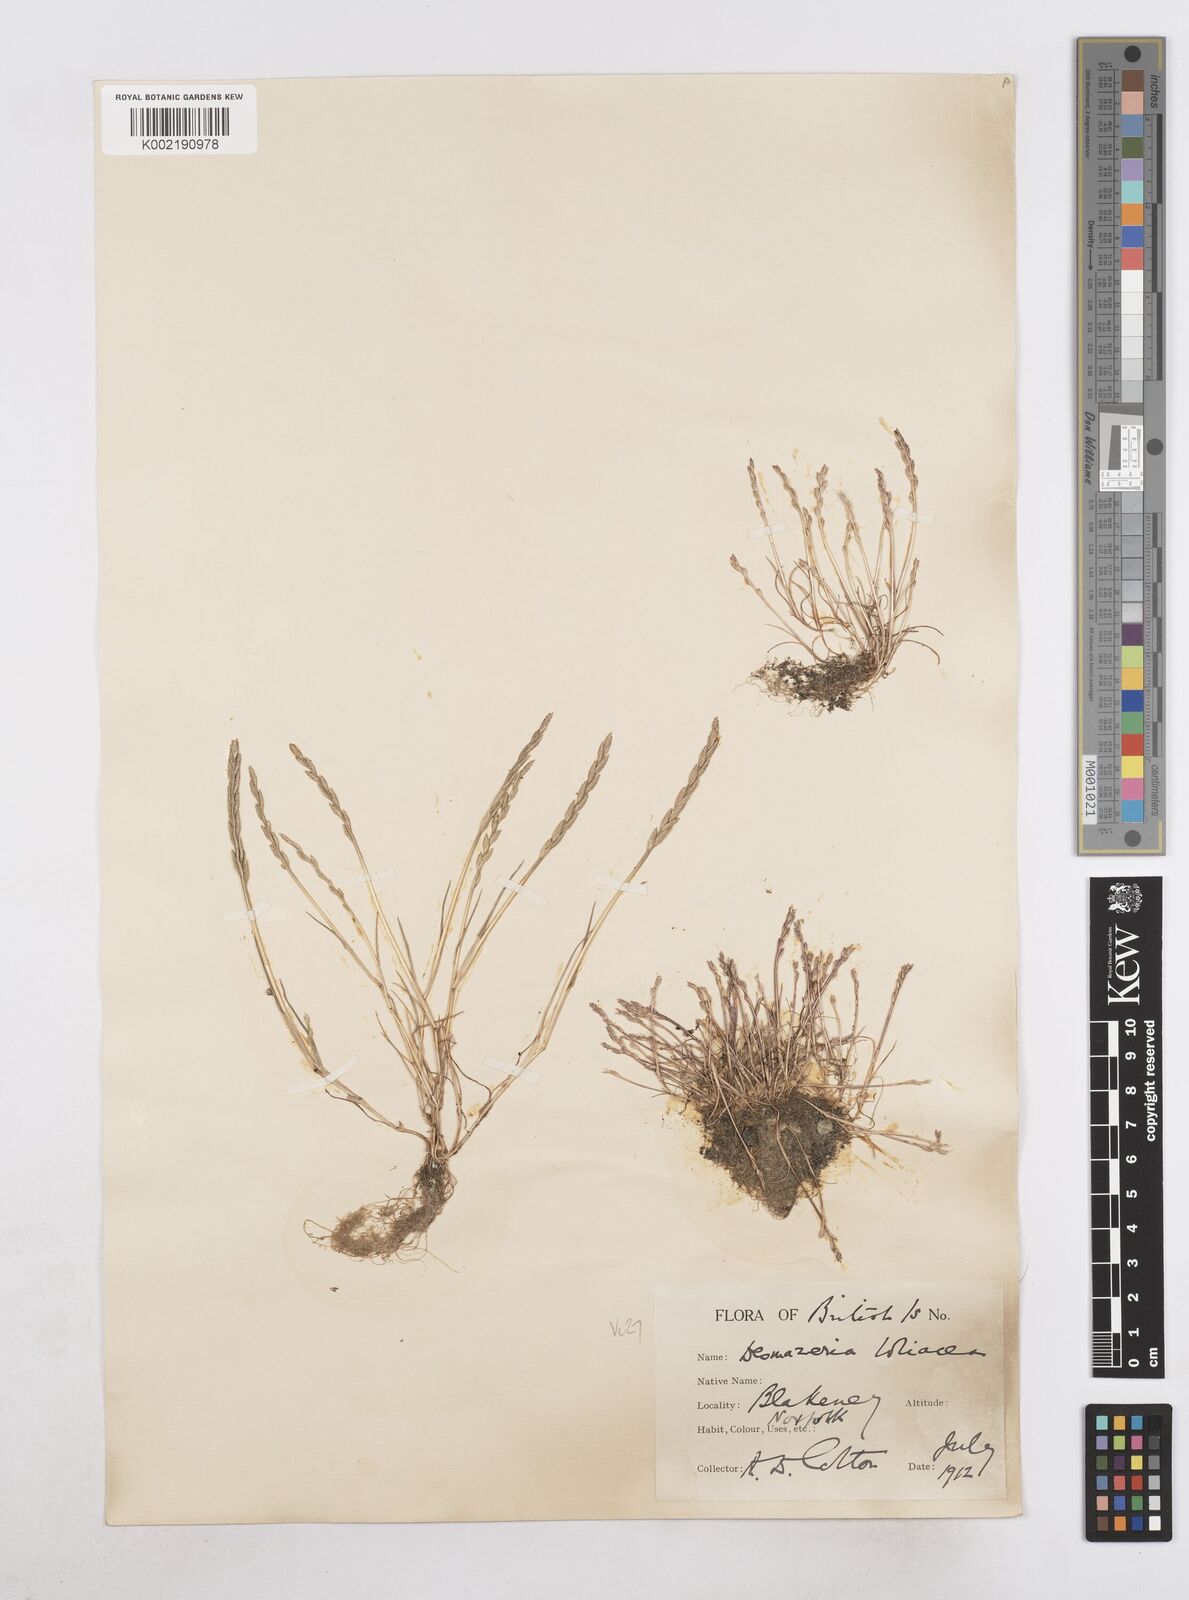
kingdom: Plantae
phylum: Tracheophyta
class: Liliopsida
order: Poales
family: Poaceae
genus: Catapodium
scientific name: Catapodium marinum
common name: Sea fern-grass
